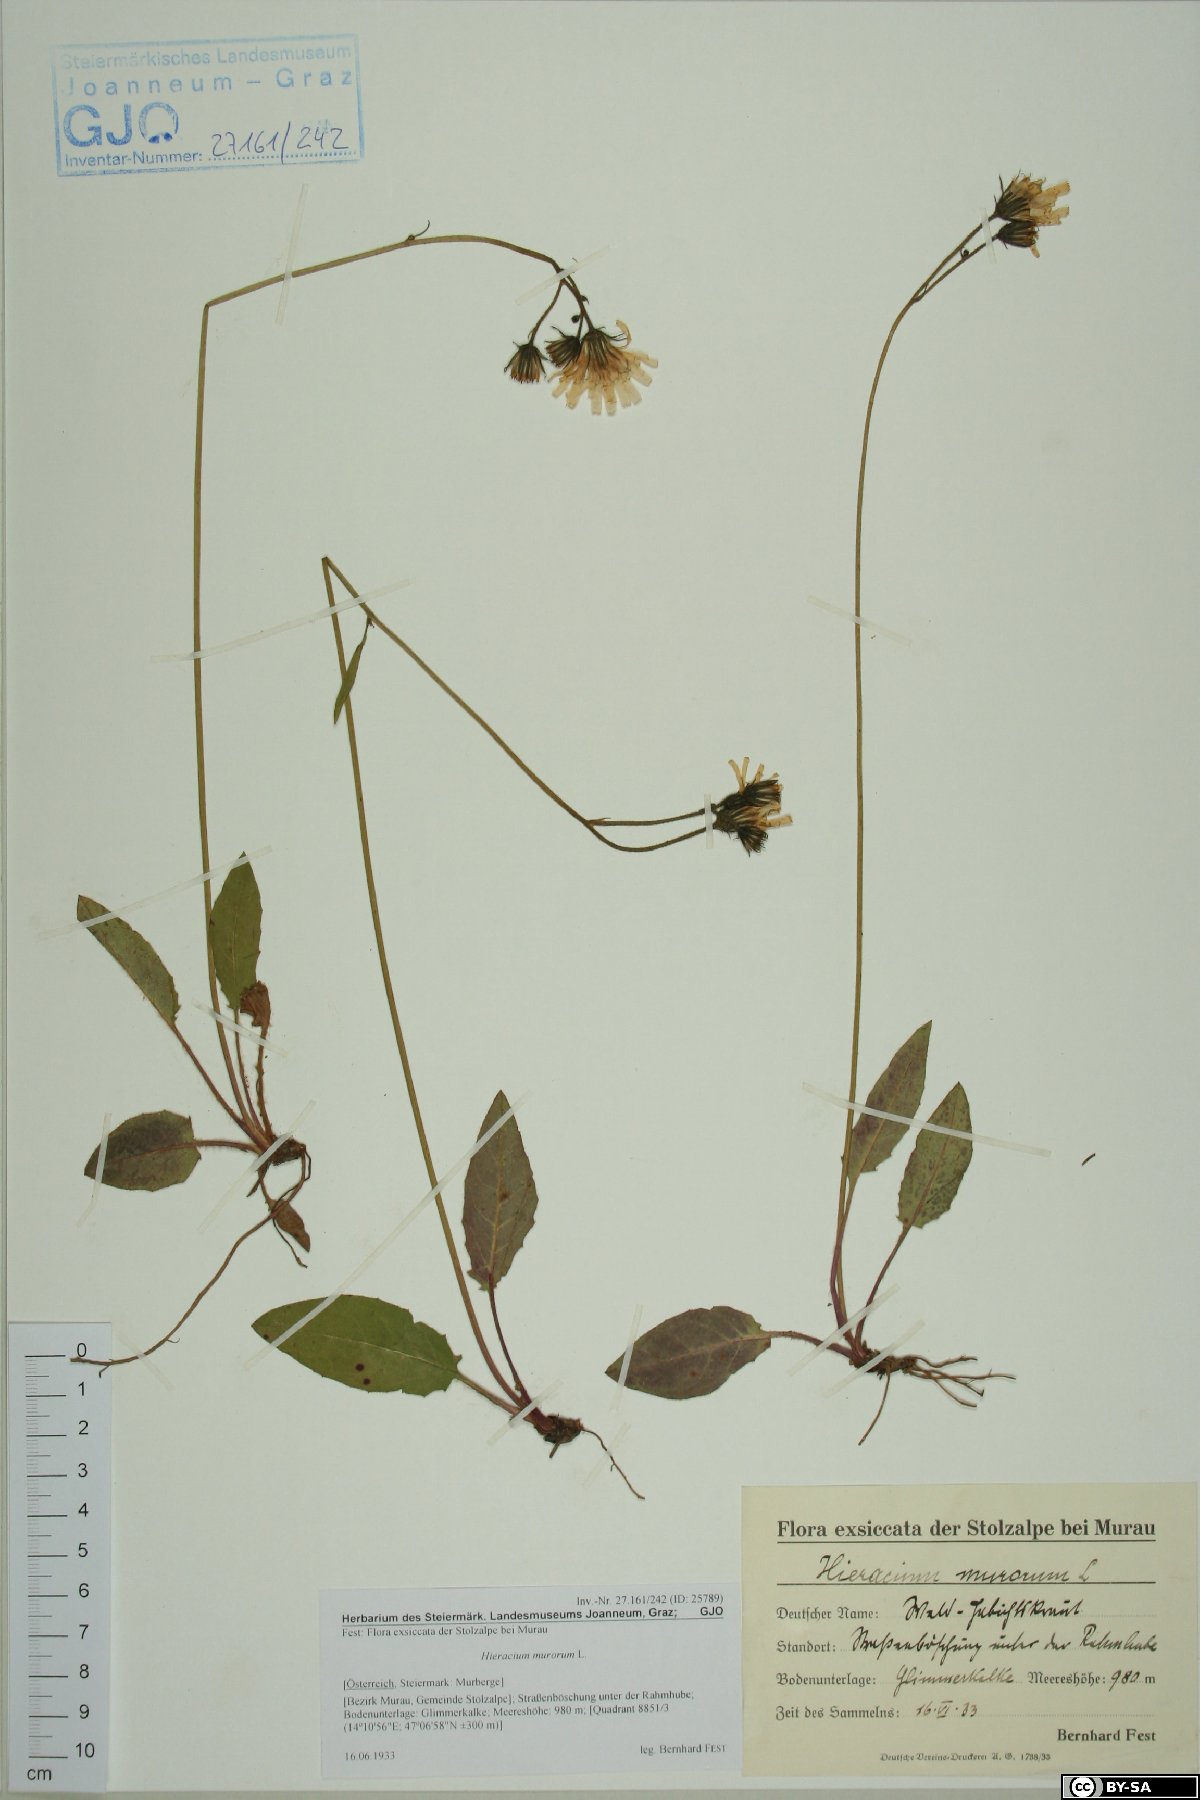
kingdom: Plantae
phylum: Tracheophyta
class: Magnoliopsida
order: Asterales
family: Asteraceae
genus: Hieracium
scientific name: Hieracium murorum
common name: Wall hawkweed
